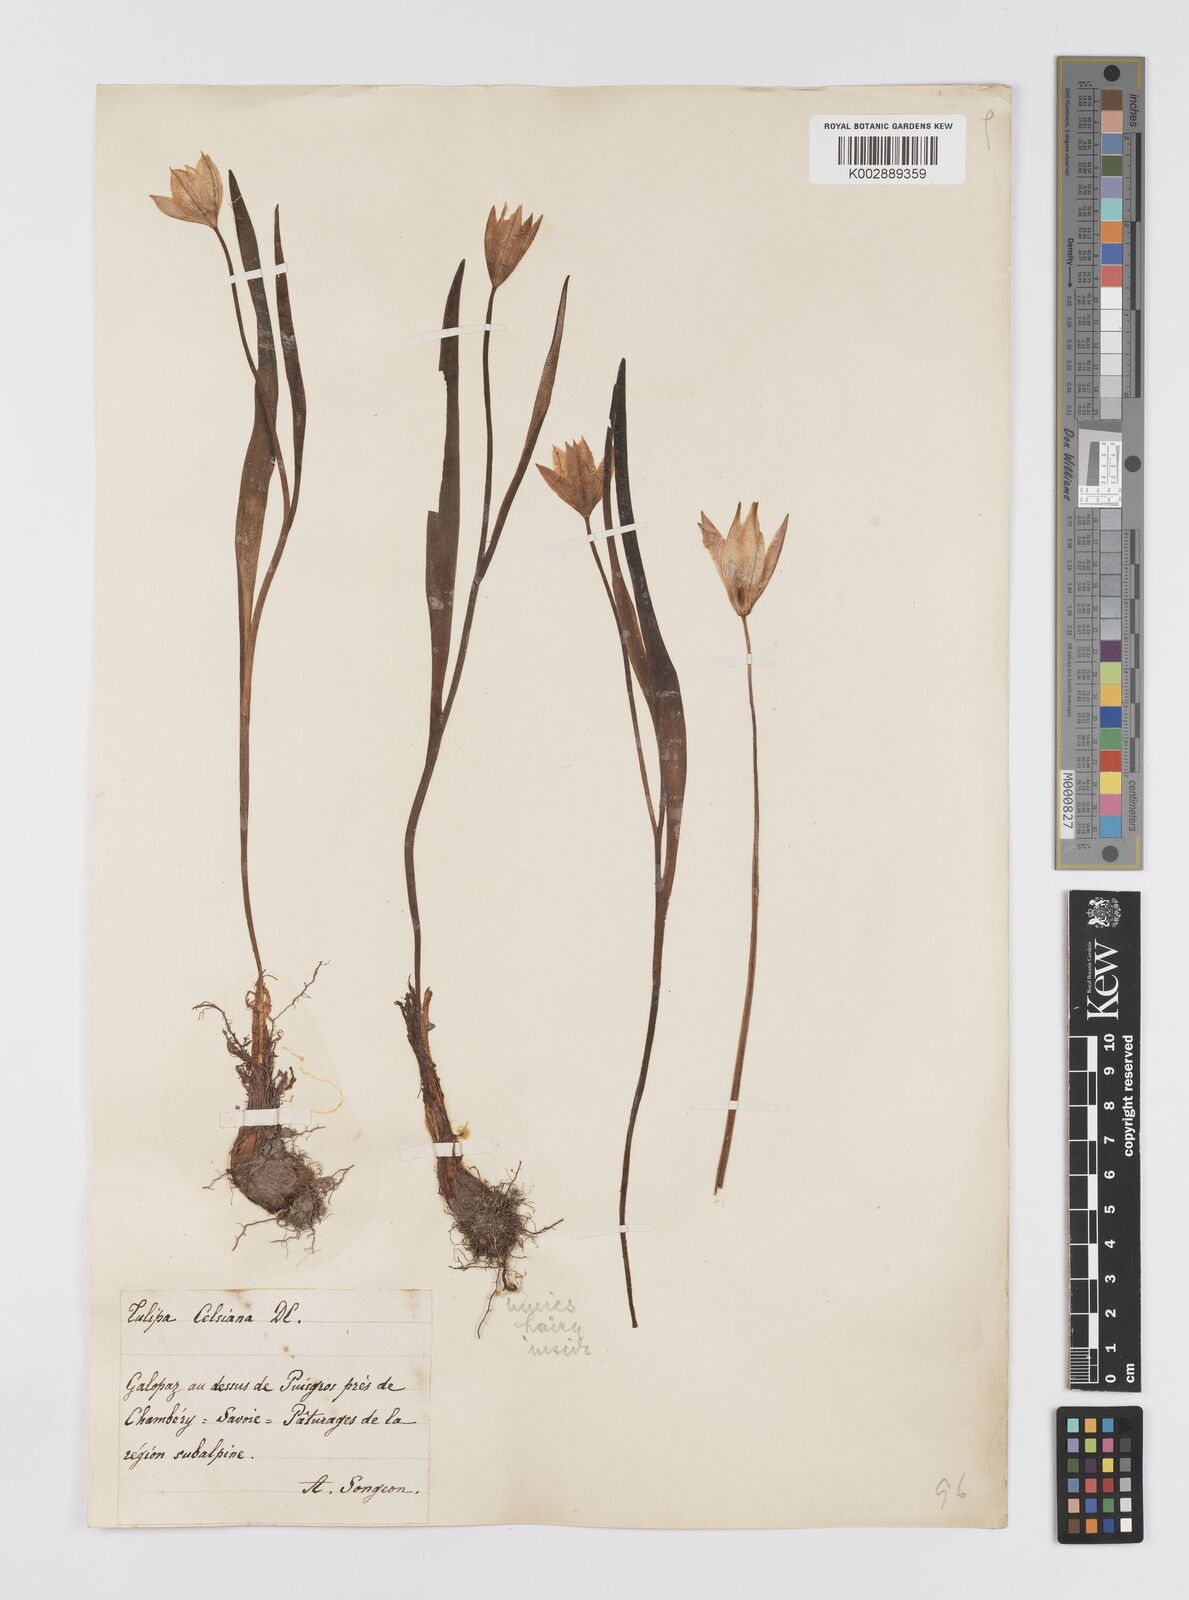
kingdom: Plantae
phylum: Tracheophyta
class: Liliopsida
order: Liliales
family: Liliaceae
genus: Tulipa
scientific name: Tulipa sylvestris
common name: Wild tulip
